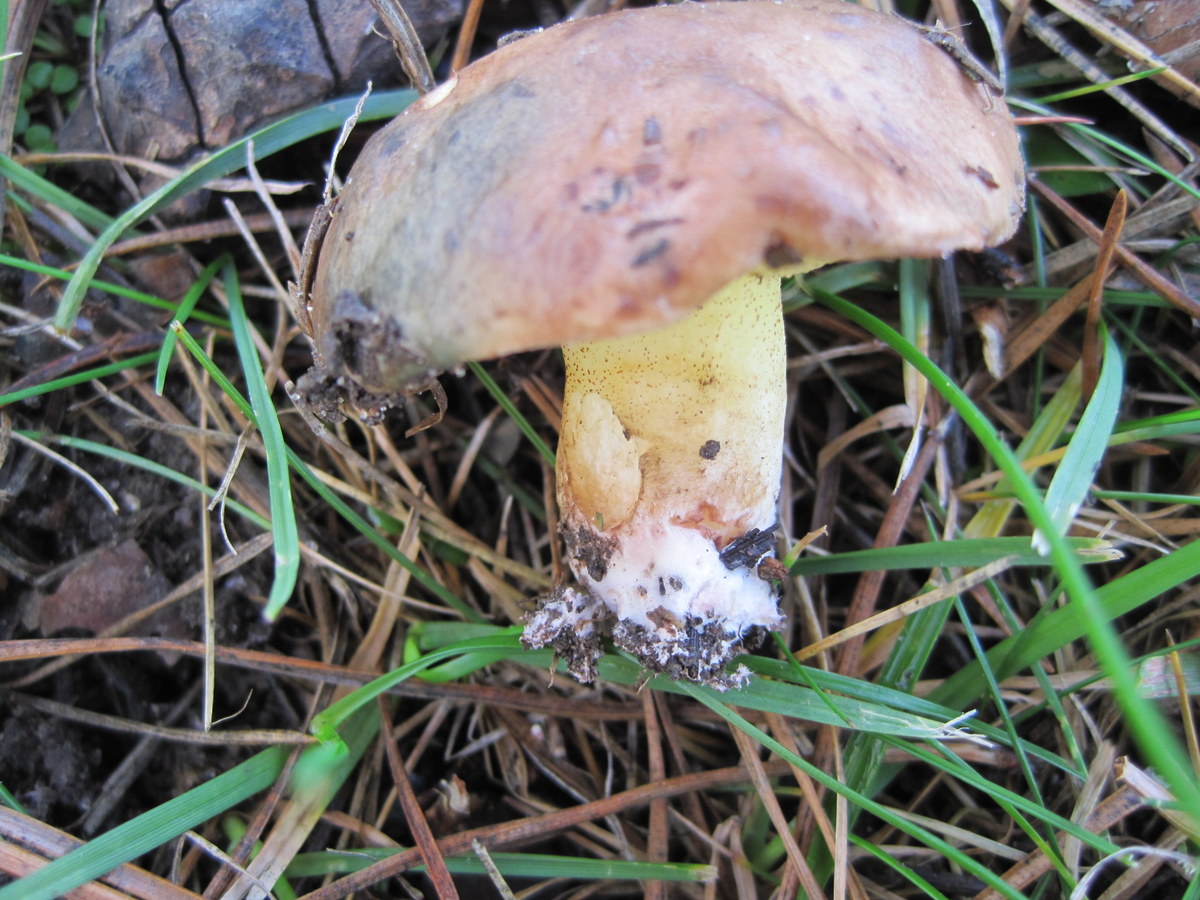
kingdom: Fungi
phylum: Basidiomycota
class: Agaricomycetes
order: Boletales
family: Suillaceae
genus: Suillus
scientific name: Suillus collinitus
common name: rosafodet slimrørhat
